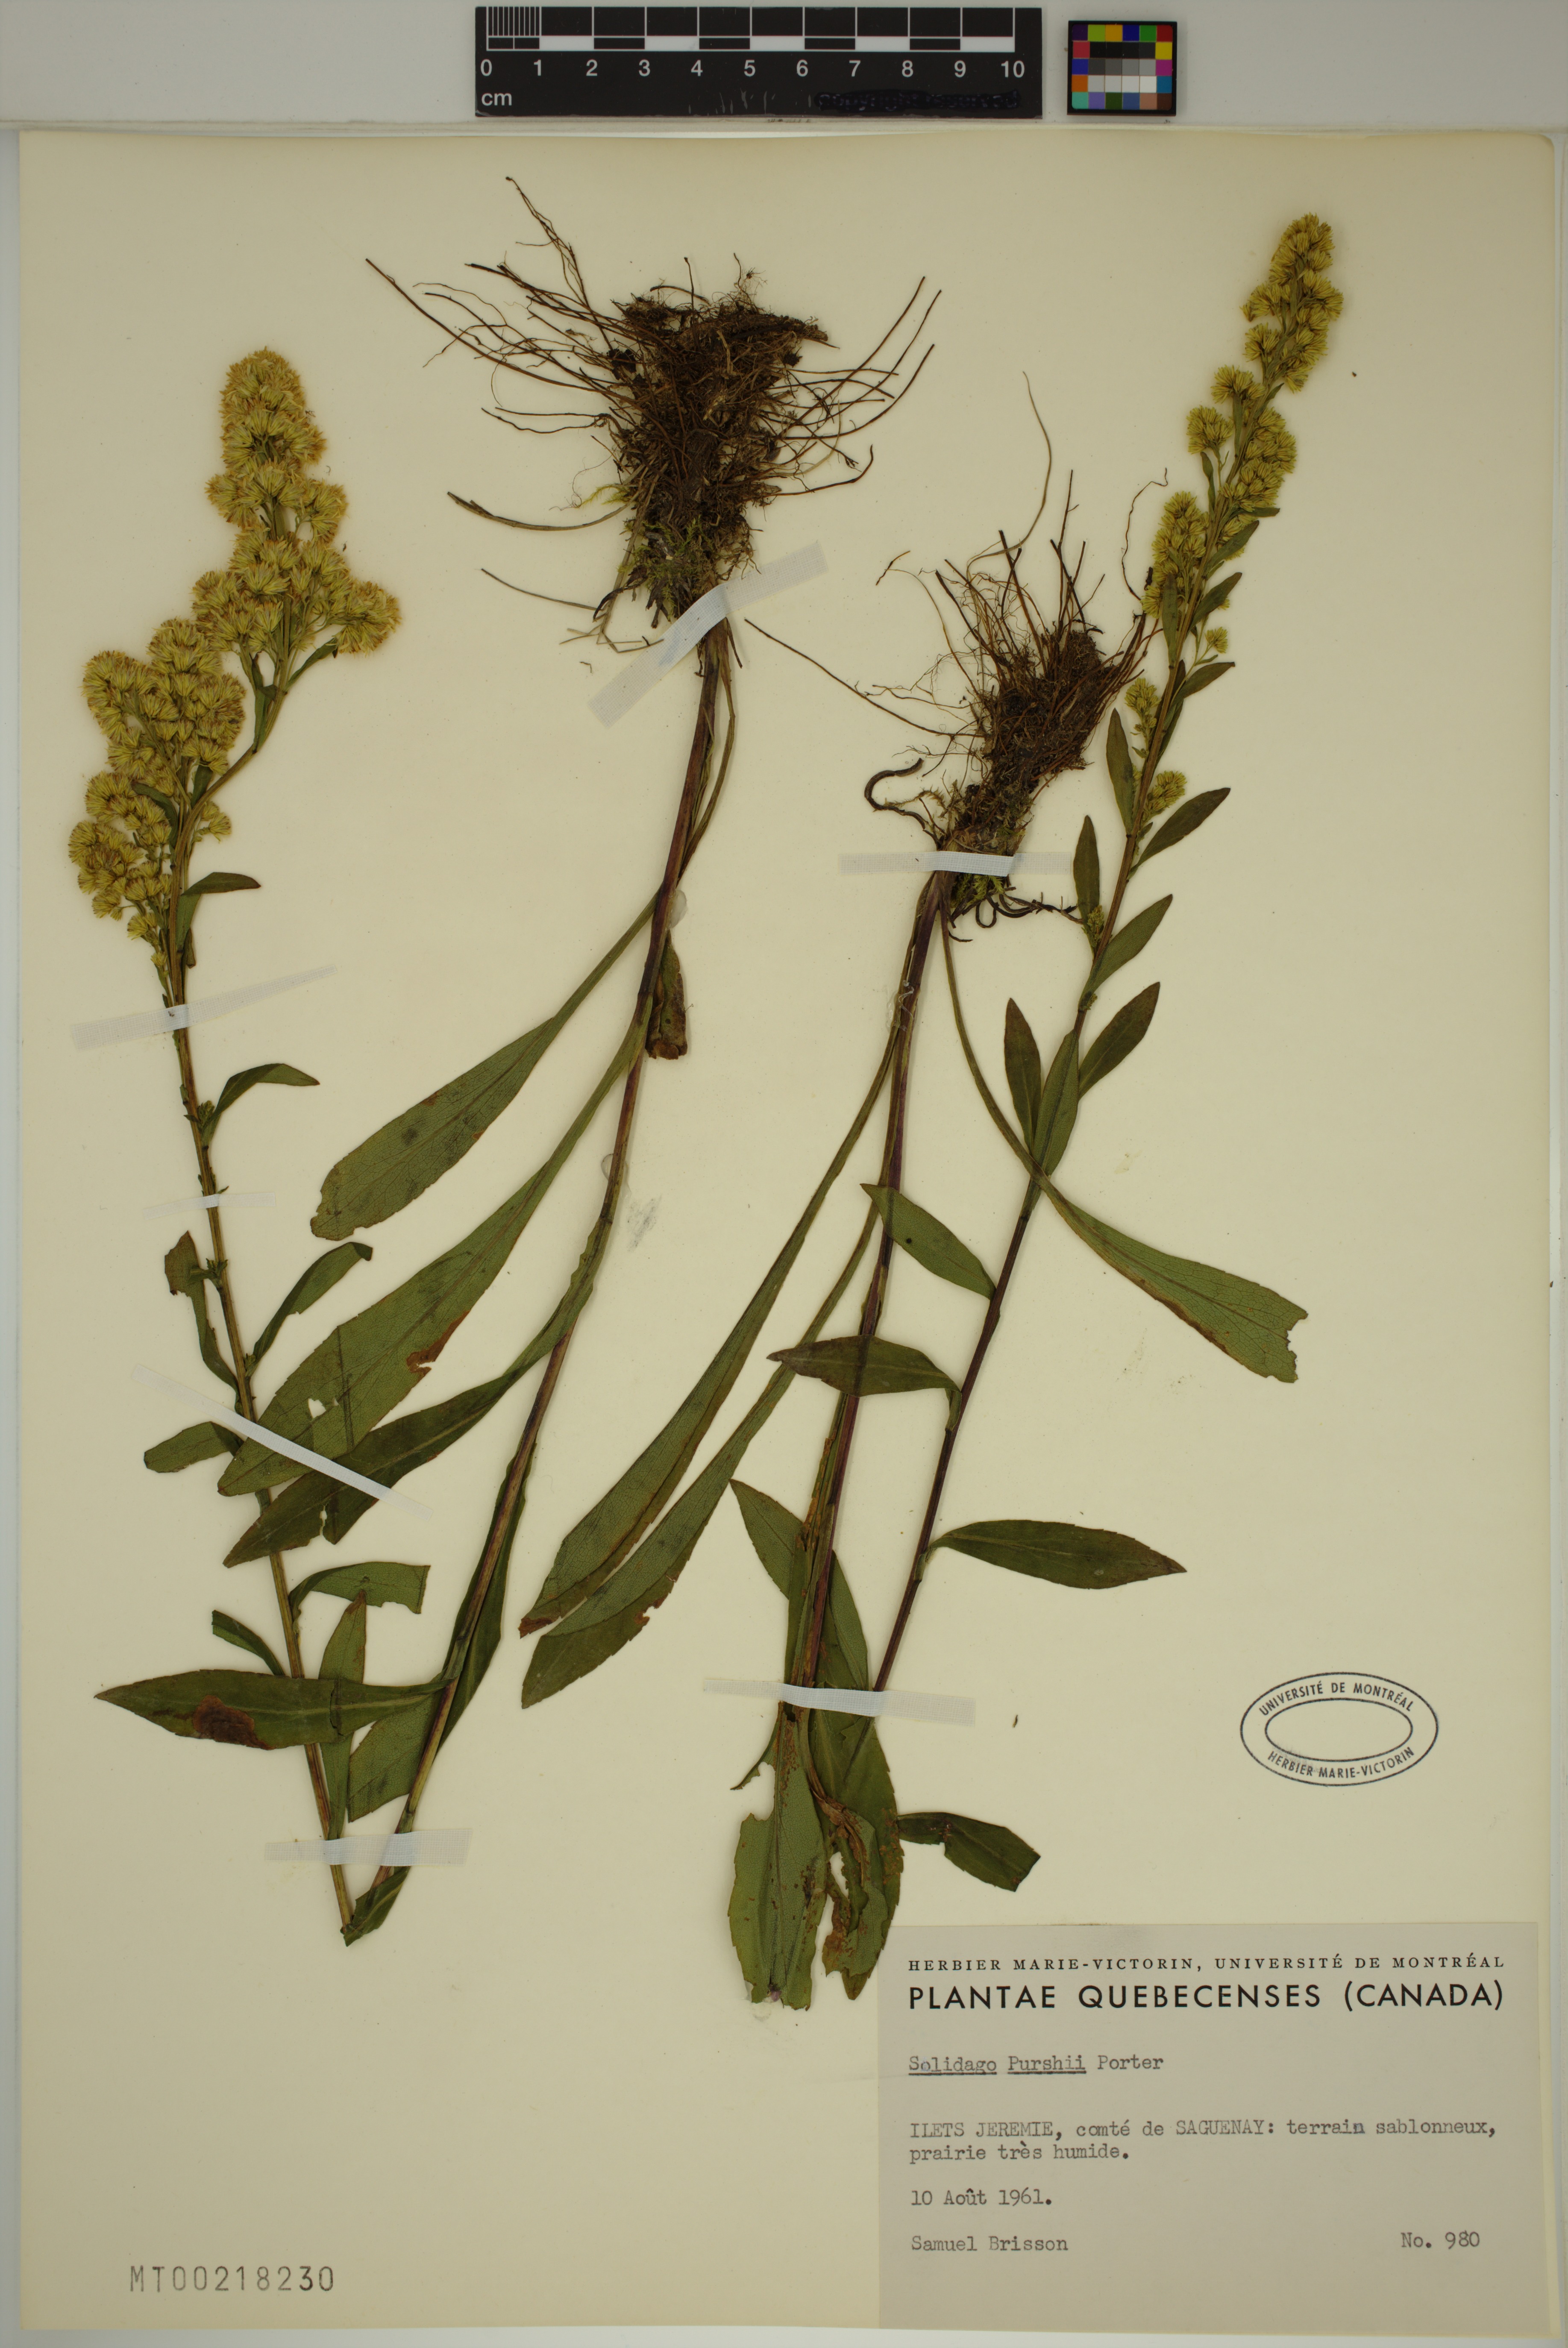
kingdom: Plantae
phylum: Tracheophyta
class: Magnoliopsida
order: Asterales
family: Asteraceae
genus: Solidago
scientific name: Solidago uliginosa
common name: Bog goldenrod
